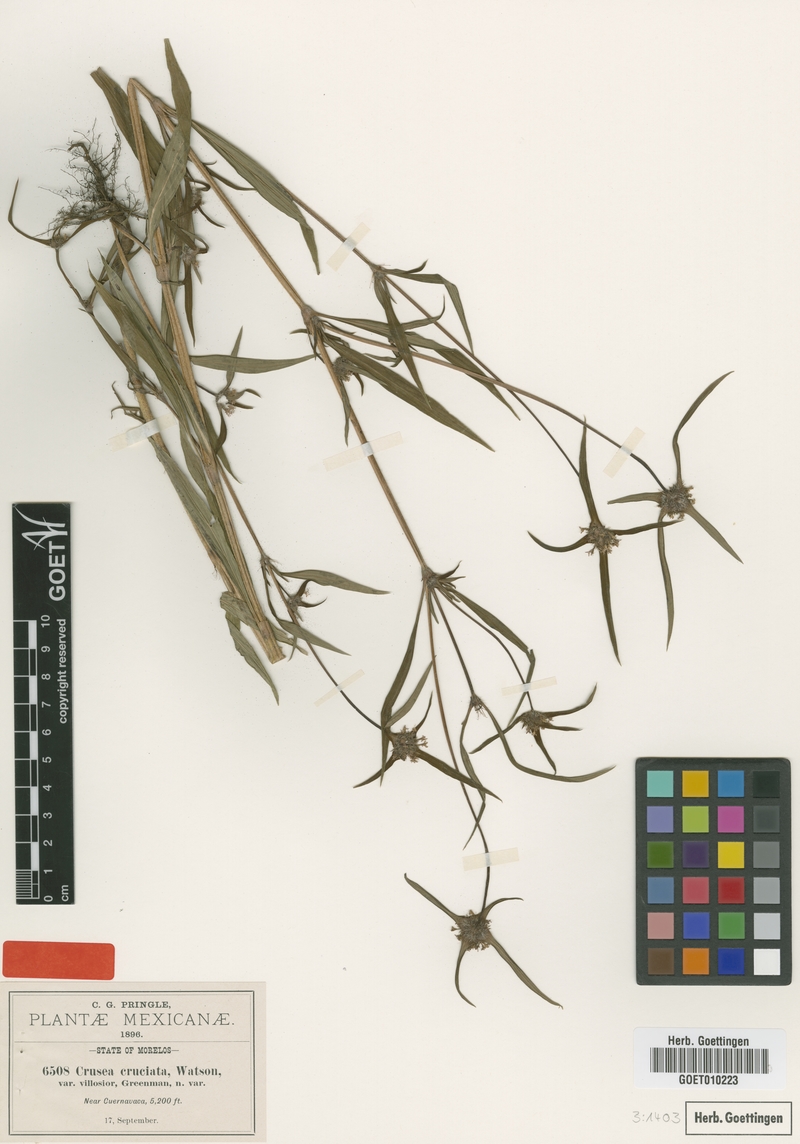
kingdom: Plantae
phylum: Tracheophyta
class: Magnoliopsida
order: Gentianales
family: Rubiaceae
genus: Crusea
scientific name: Crusea setosa
